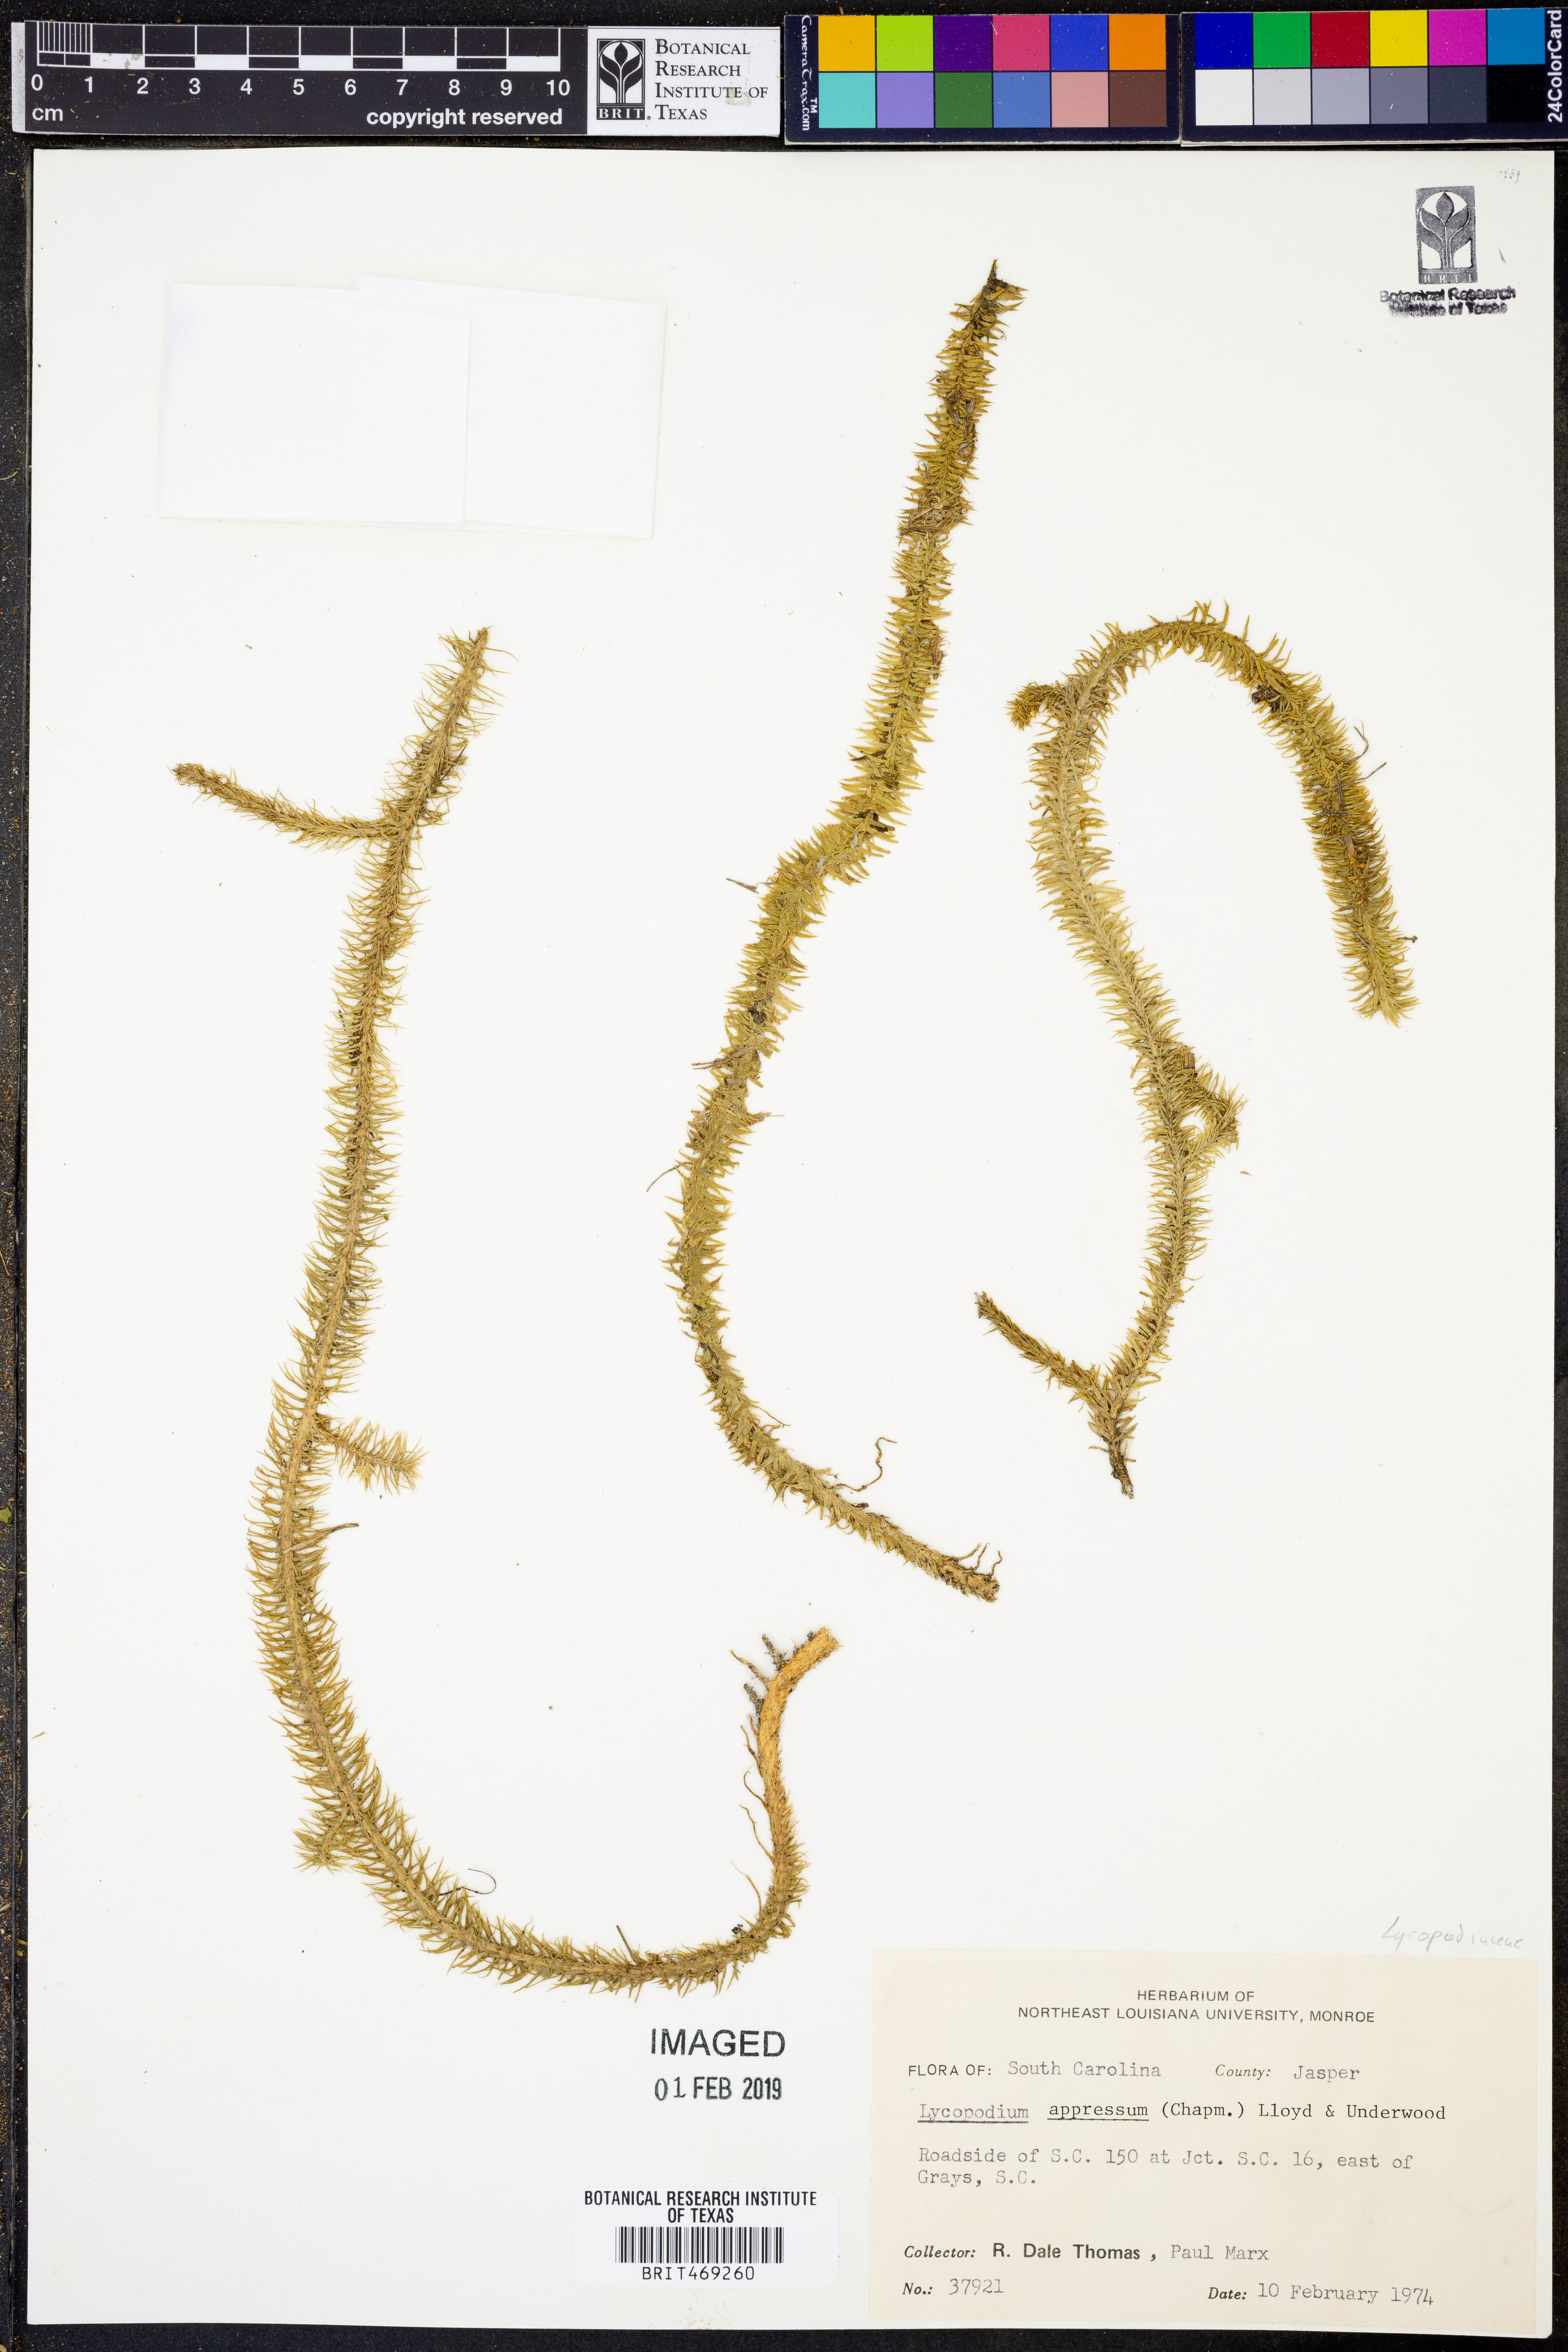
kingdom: Plantae
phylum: Tracheophyta
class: Lycopodiopsida
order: Lycopodiales
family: Lycopodiaceae
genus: Lycopodiella
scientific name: Lycopodiella appressa
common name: Appressed bog clubmoss
